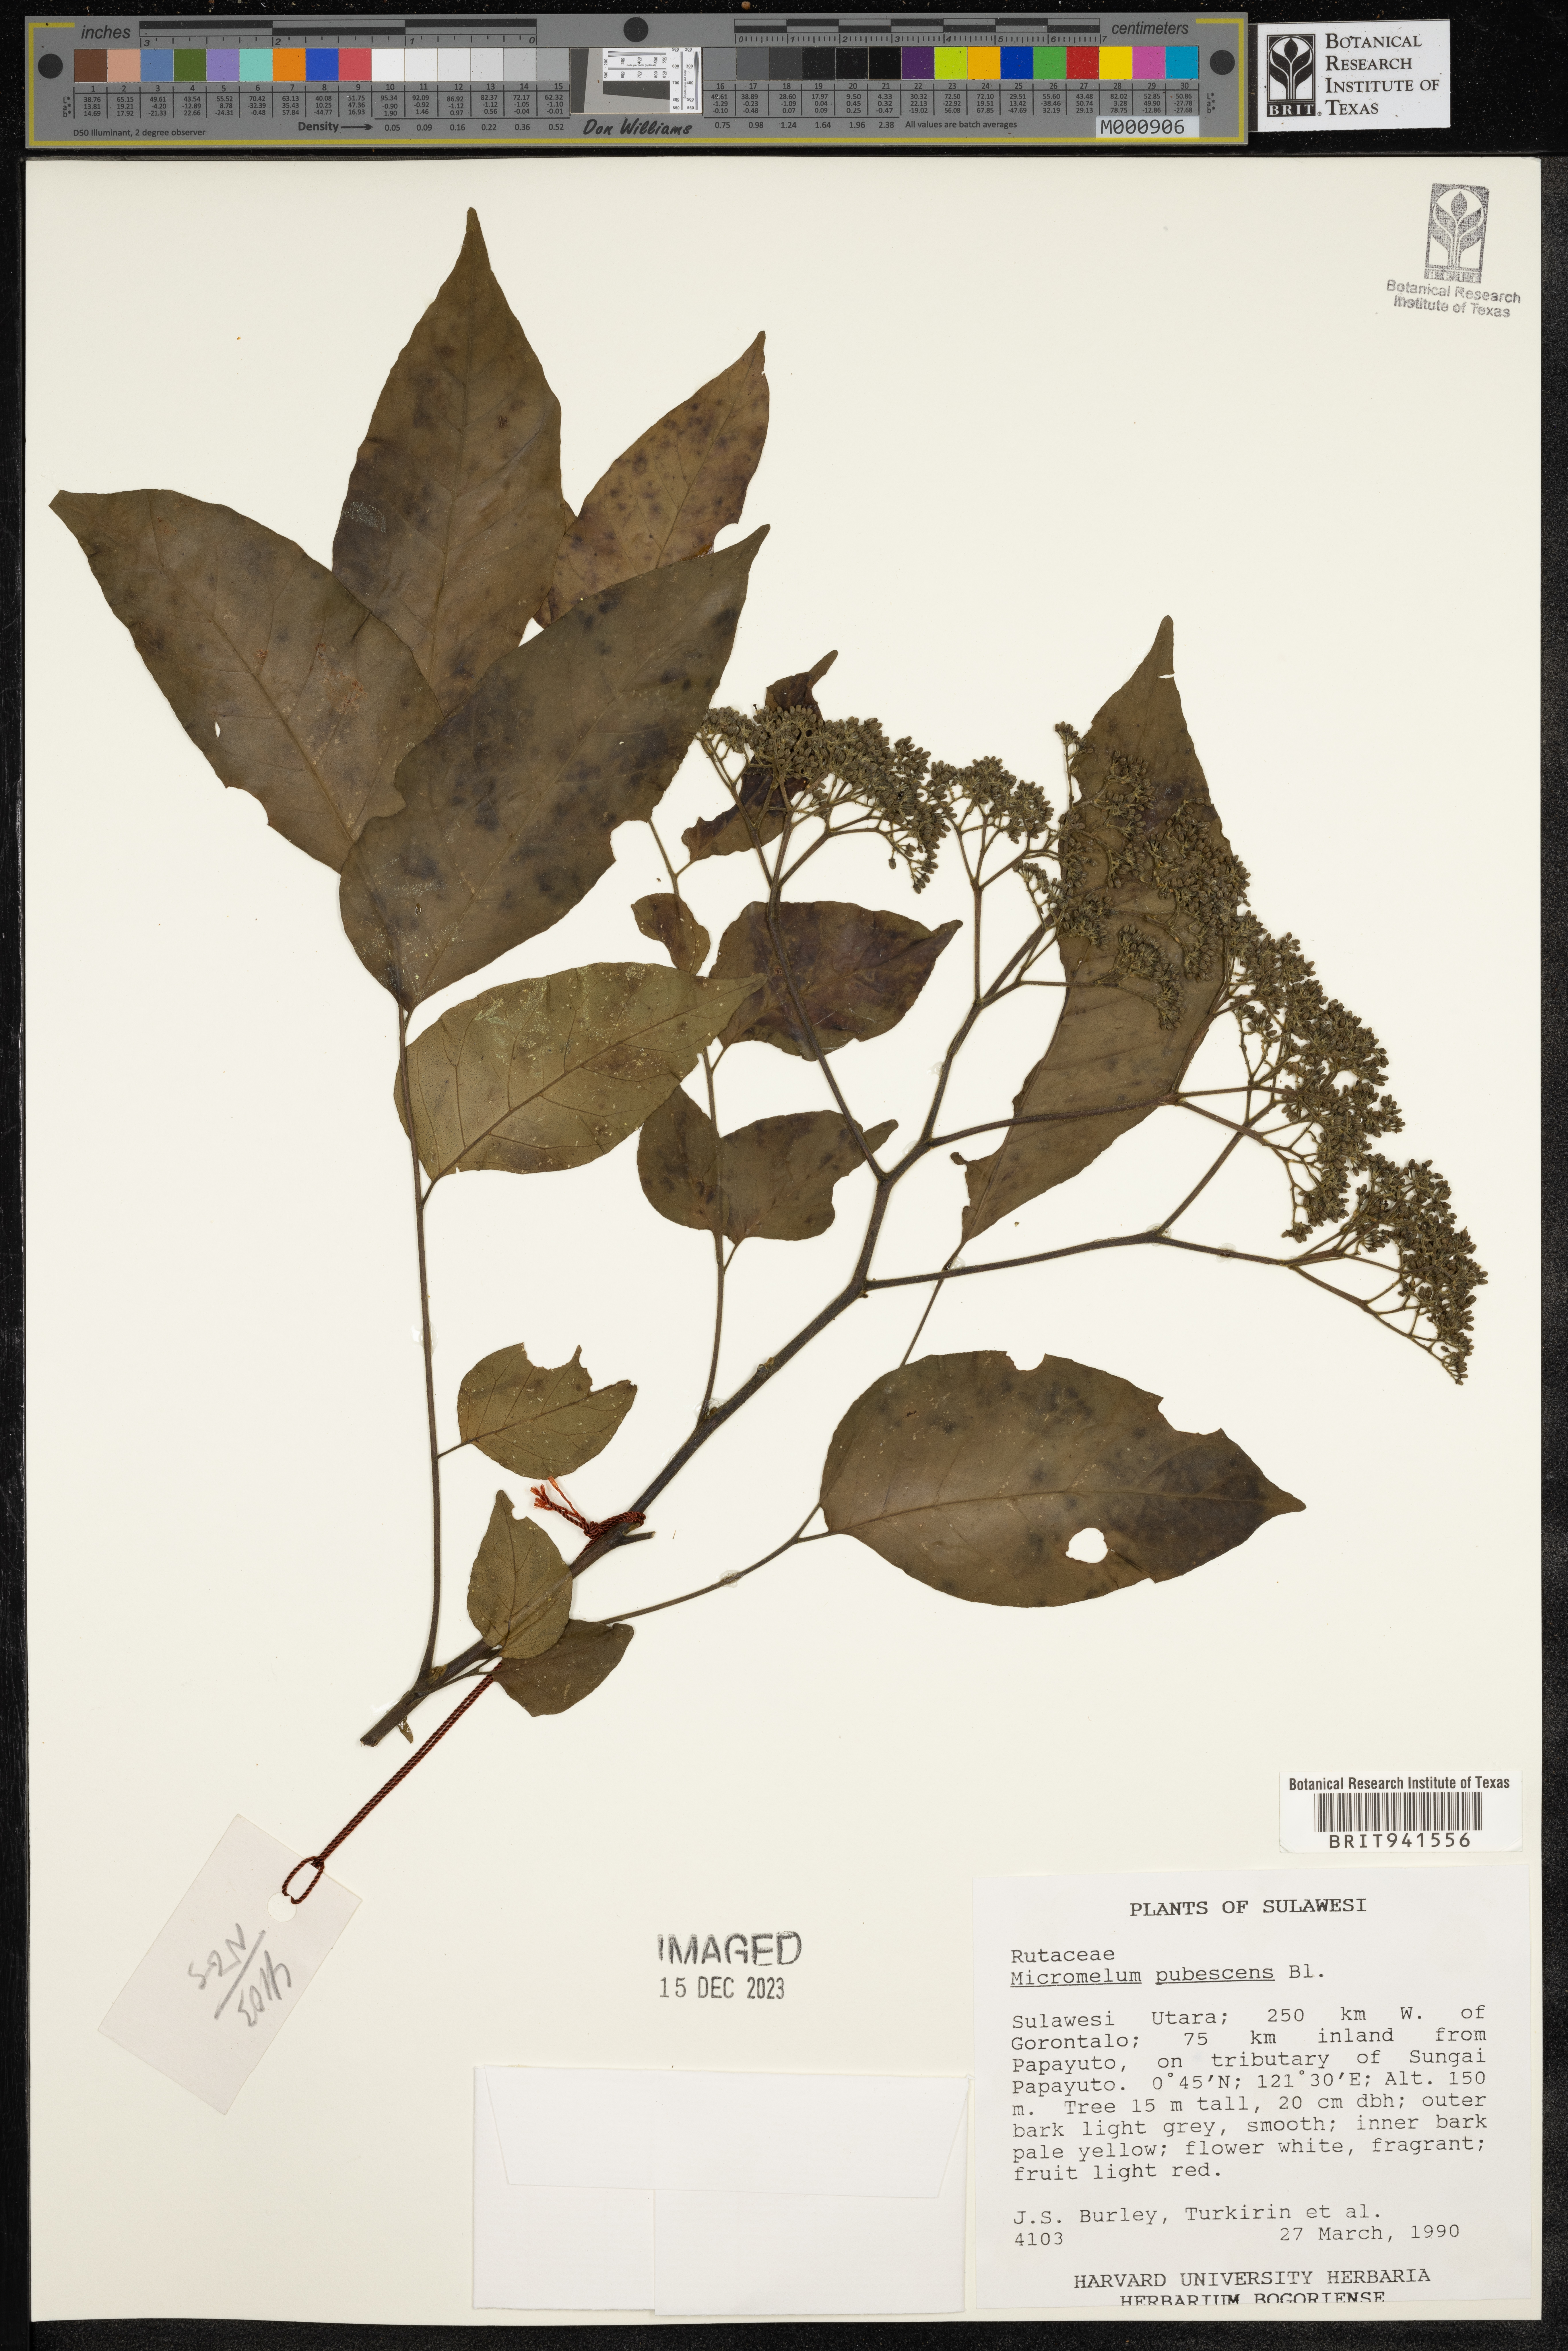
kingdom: Plantae
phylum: Tracheophyta
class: Magnoliopsida
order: Sapindales
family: Rutaceae
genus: Micromelum
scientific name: Micromelum
